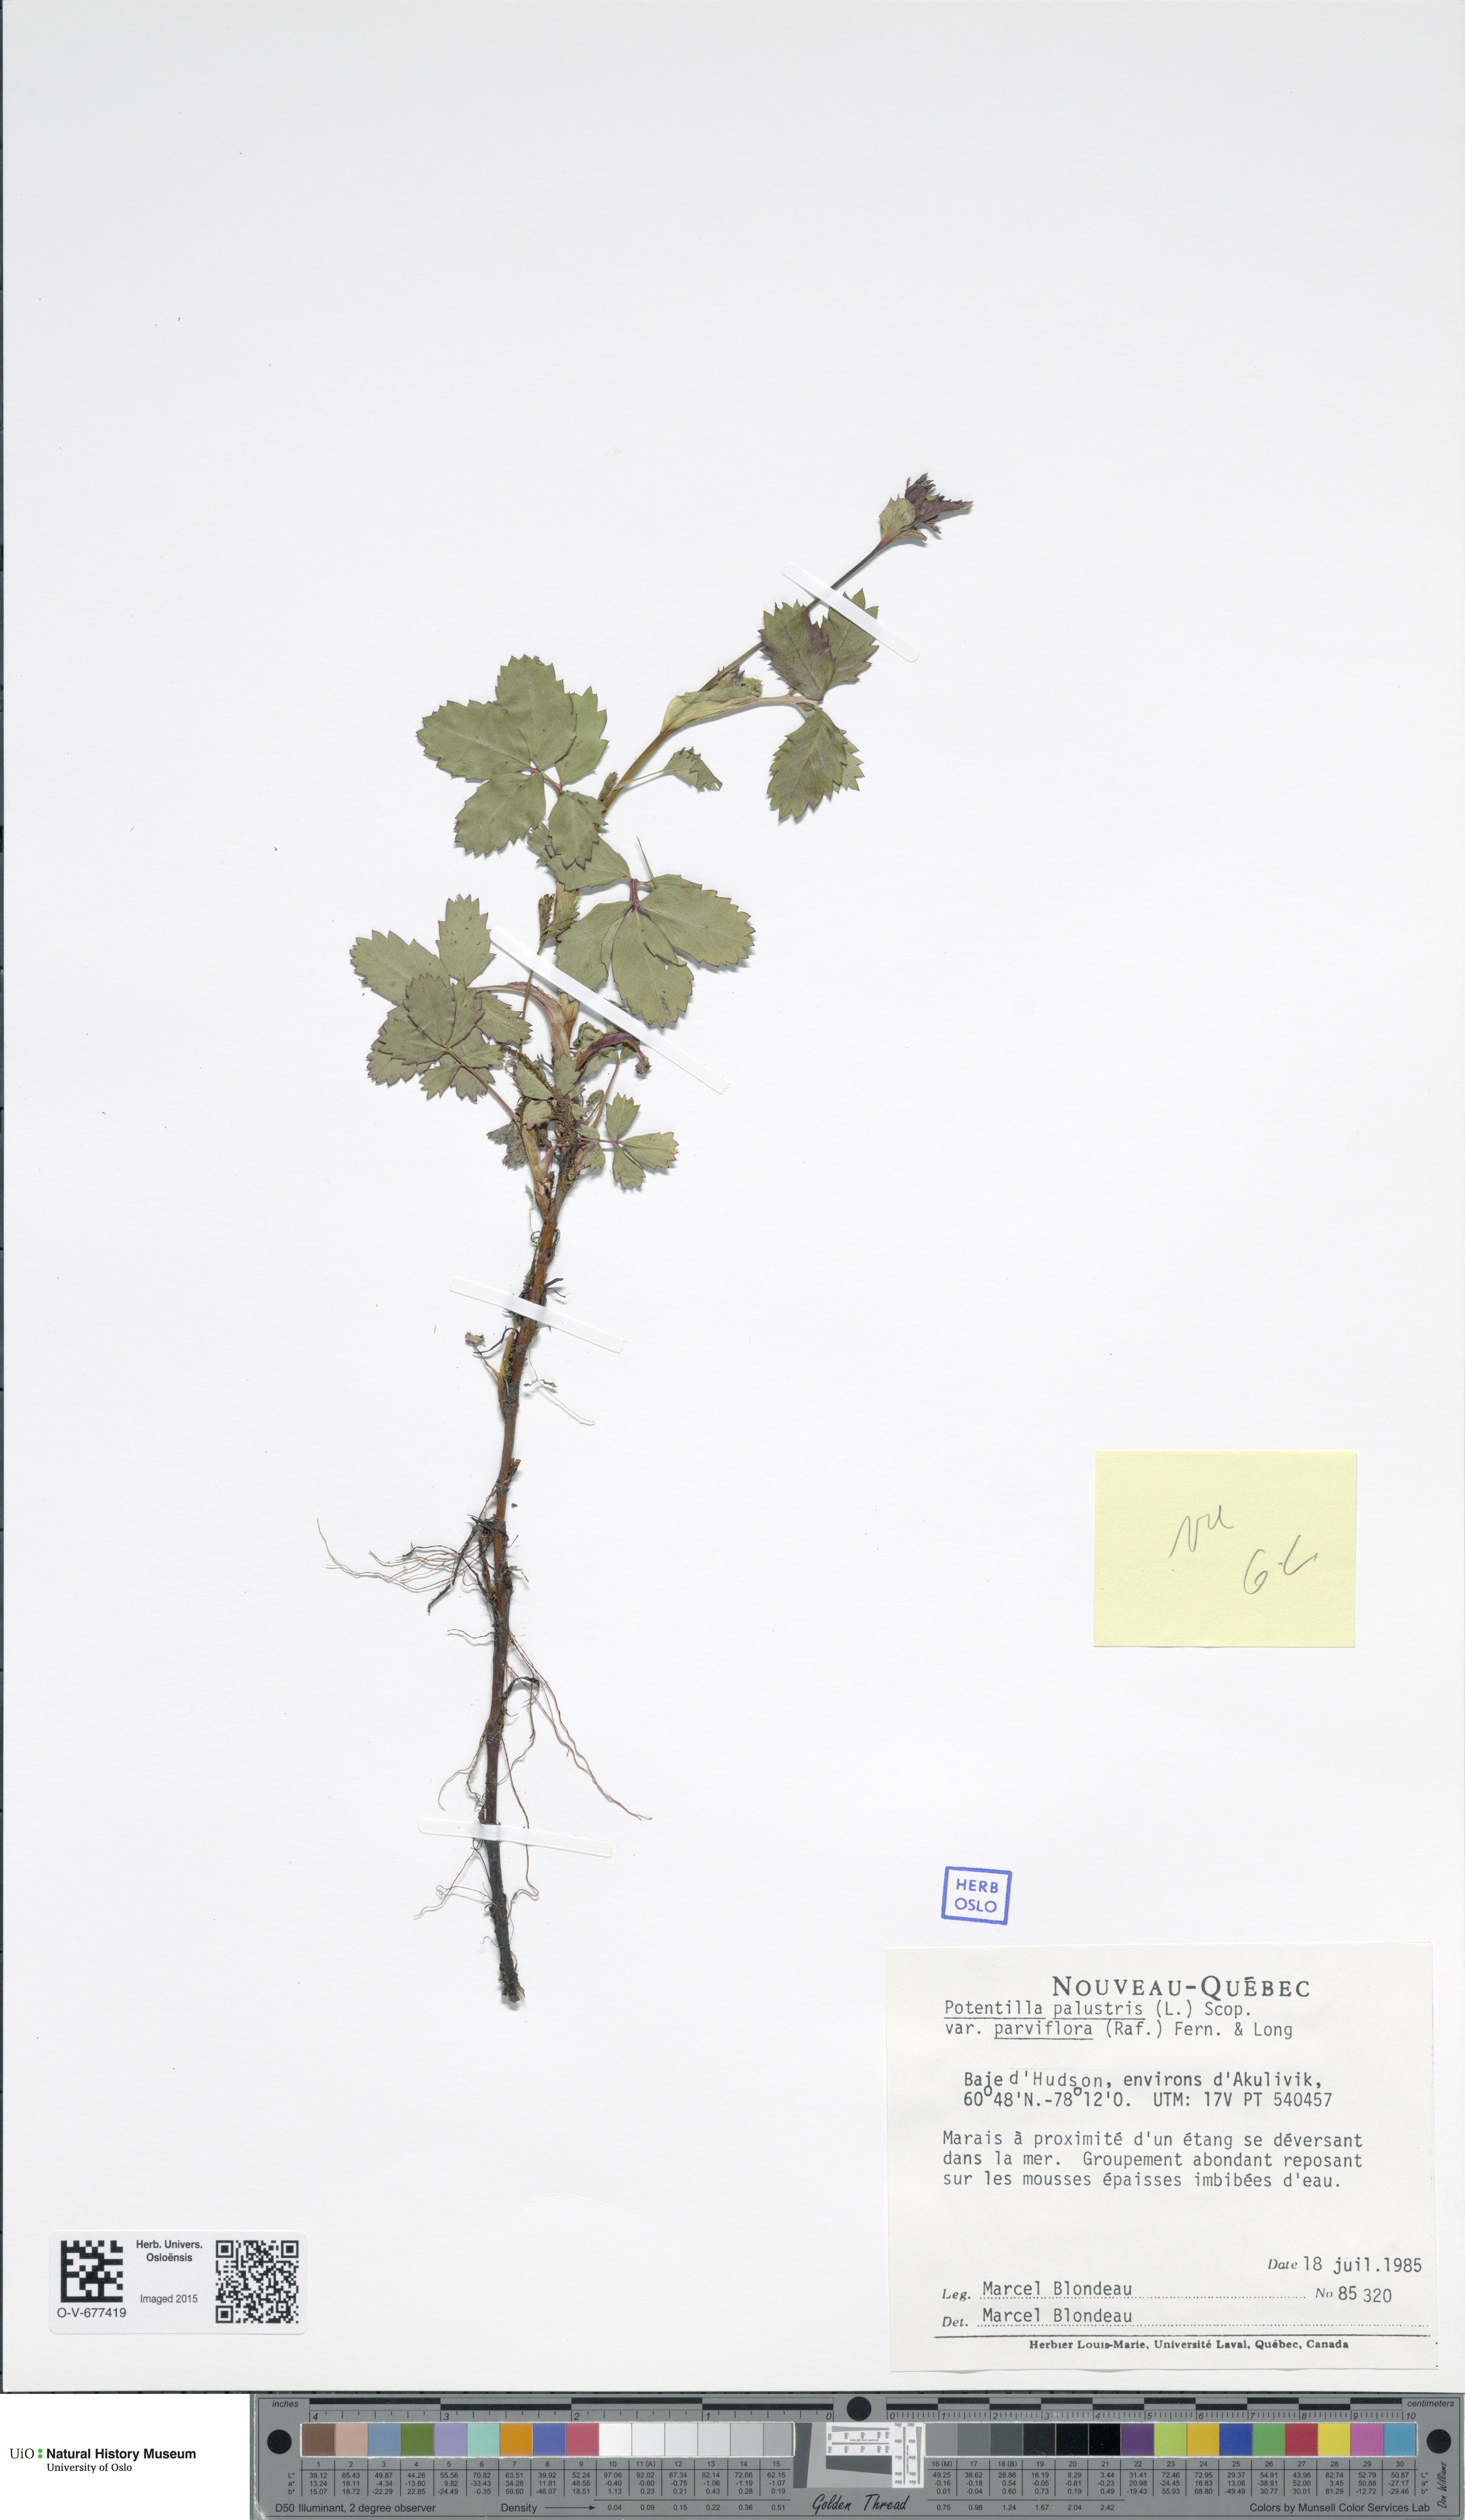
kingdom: Plantae
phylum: Tracheophyta
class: Magnoliopsida
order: Rosales
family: Rosaceae
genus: Comarum
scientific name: Comarum palustre
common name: Marsh cinquefoil
